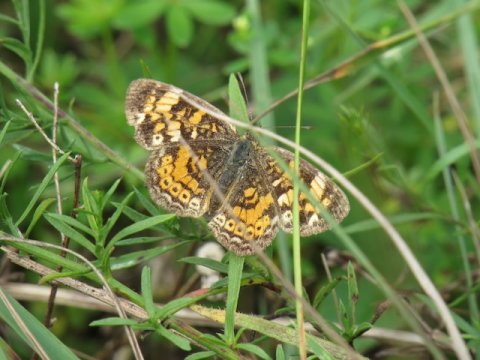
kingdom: Animalia
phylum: Arthropoda
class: Insecta
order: Lepidoptera
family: Nymphalidae
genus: Phyciodes
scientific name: Phyciodes tharos
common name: Pearl Crescent
